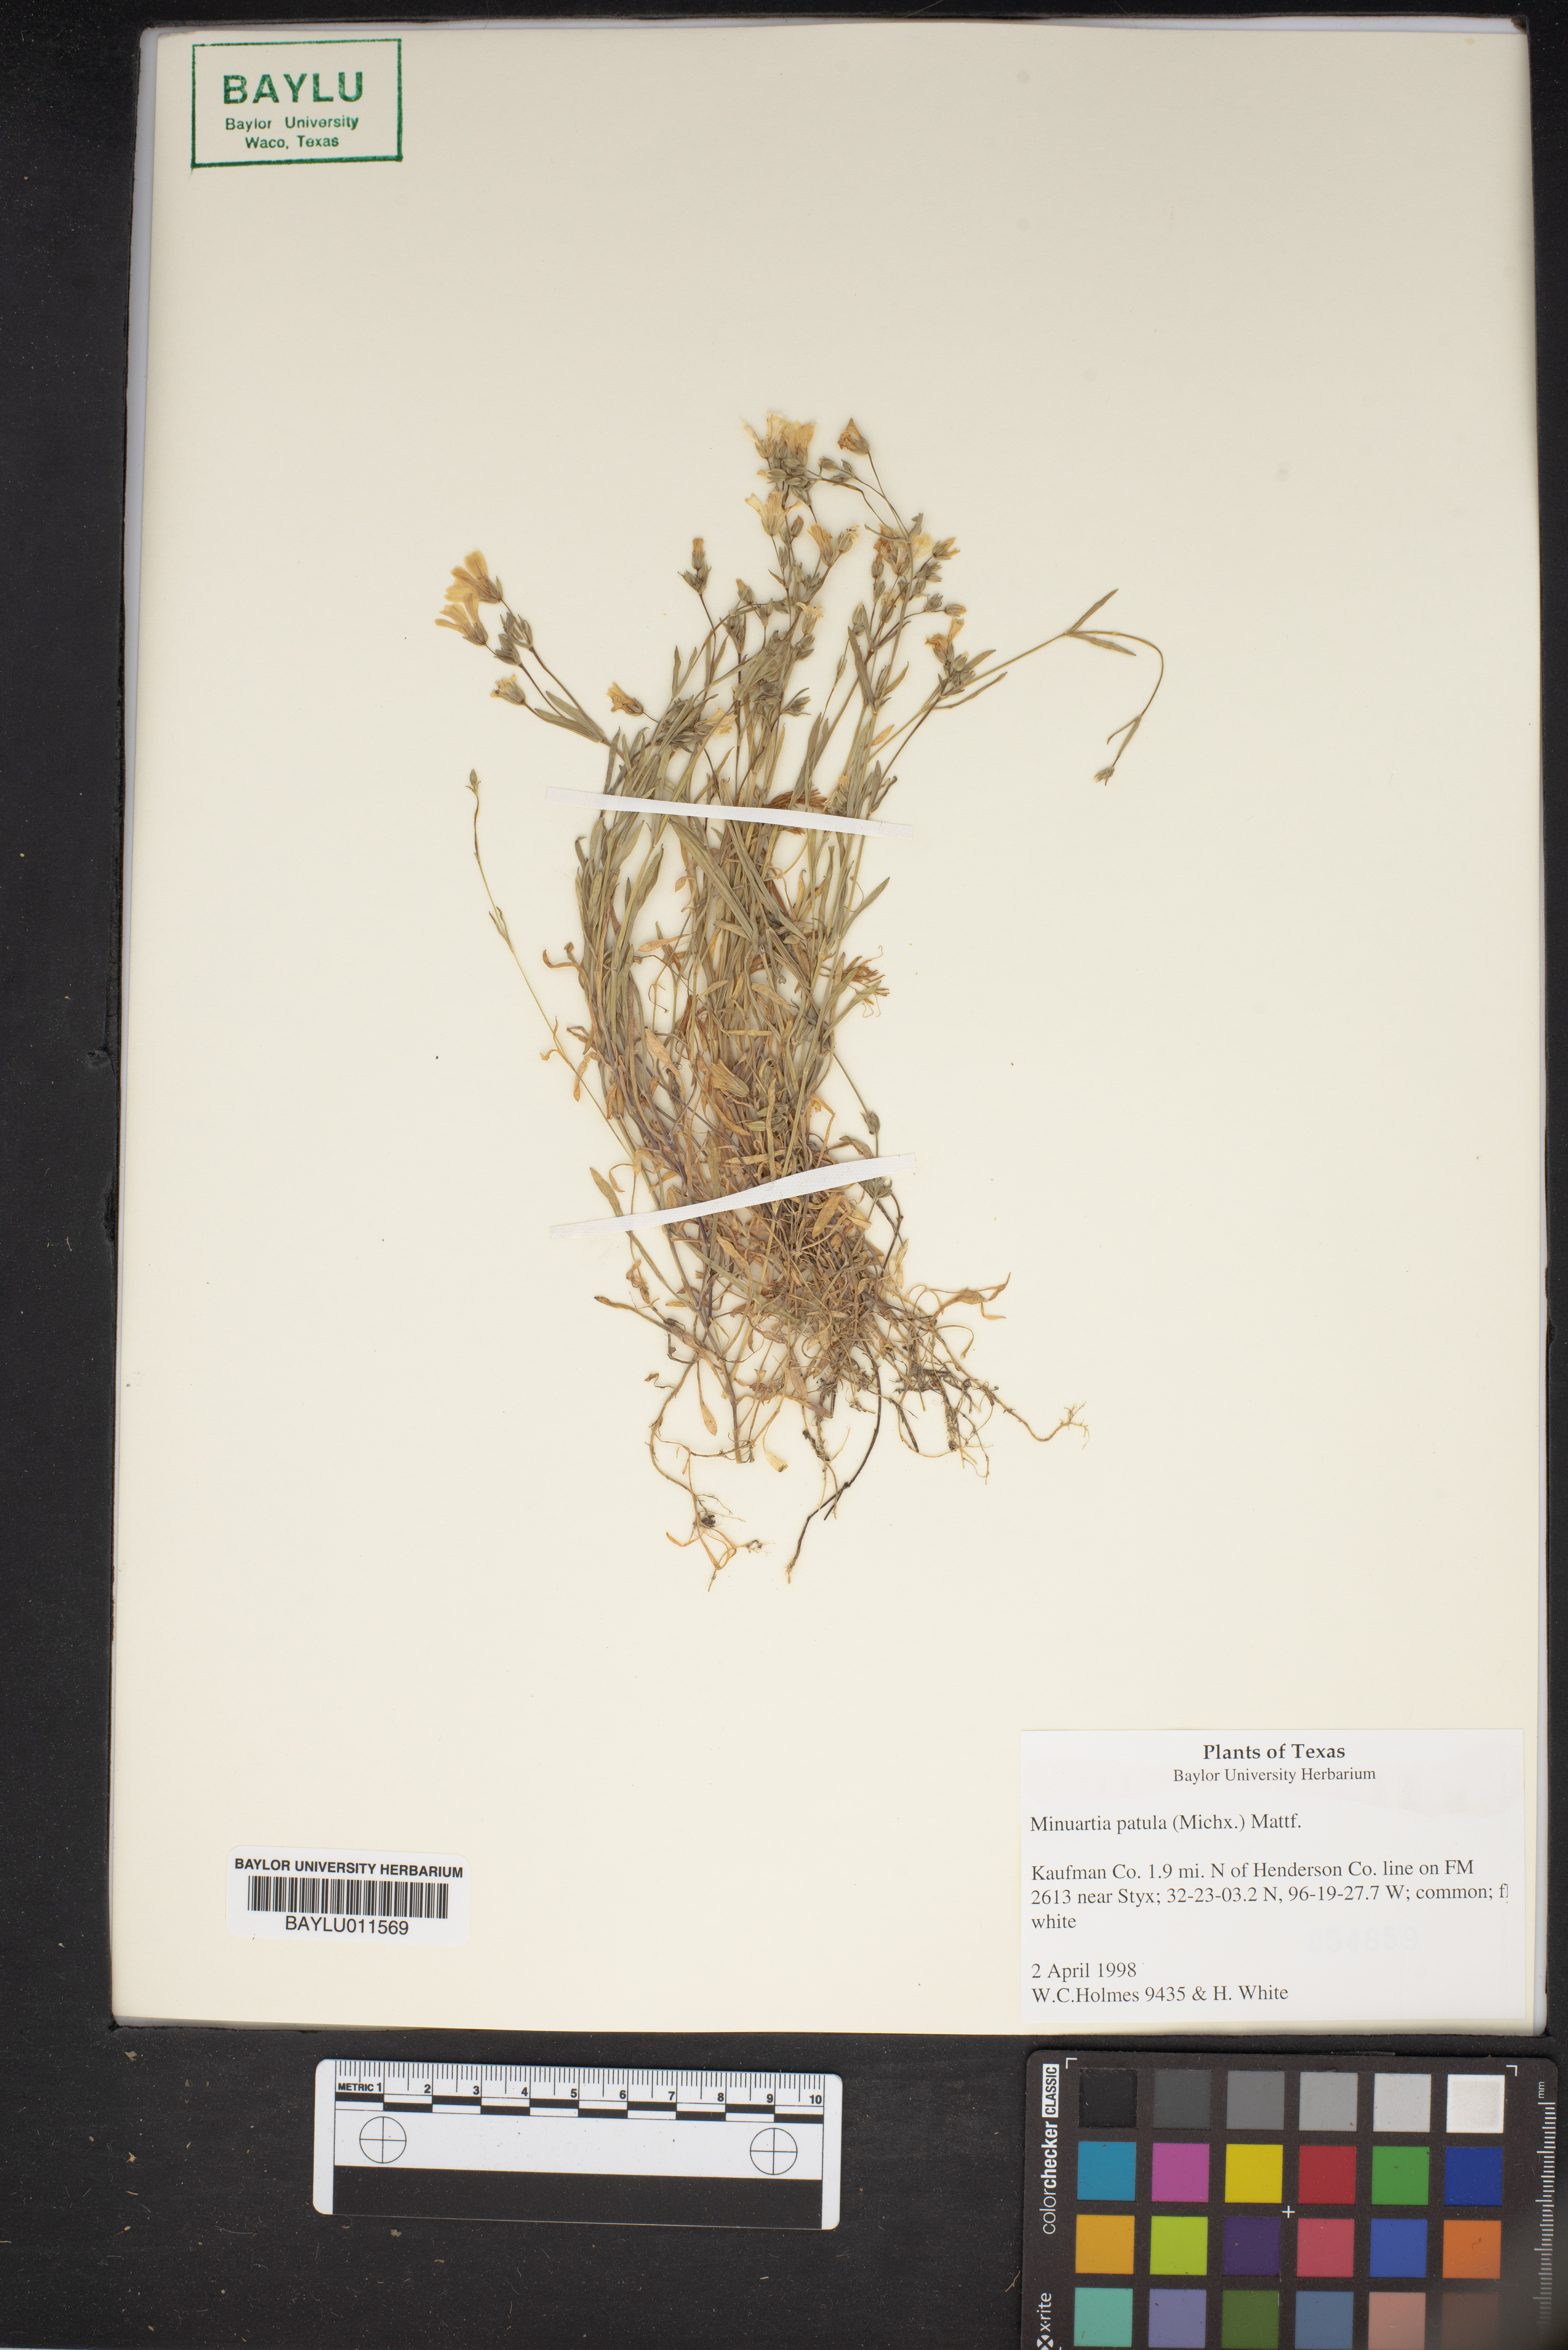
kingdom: Plantae
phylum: Tracheophyta
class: Magnoliopsida
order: Caryophyllales
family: Caryophyllaceae
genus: Mononeuria
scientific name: Mononeuria patula
